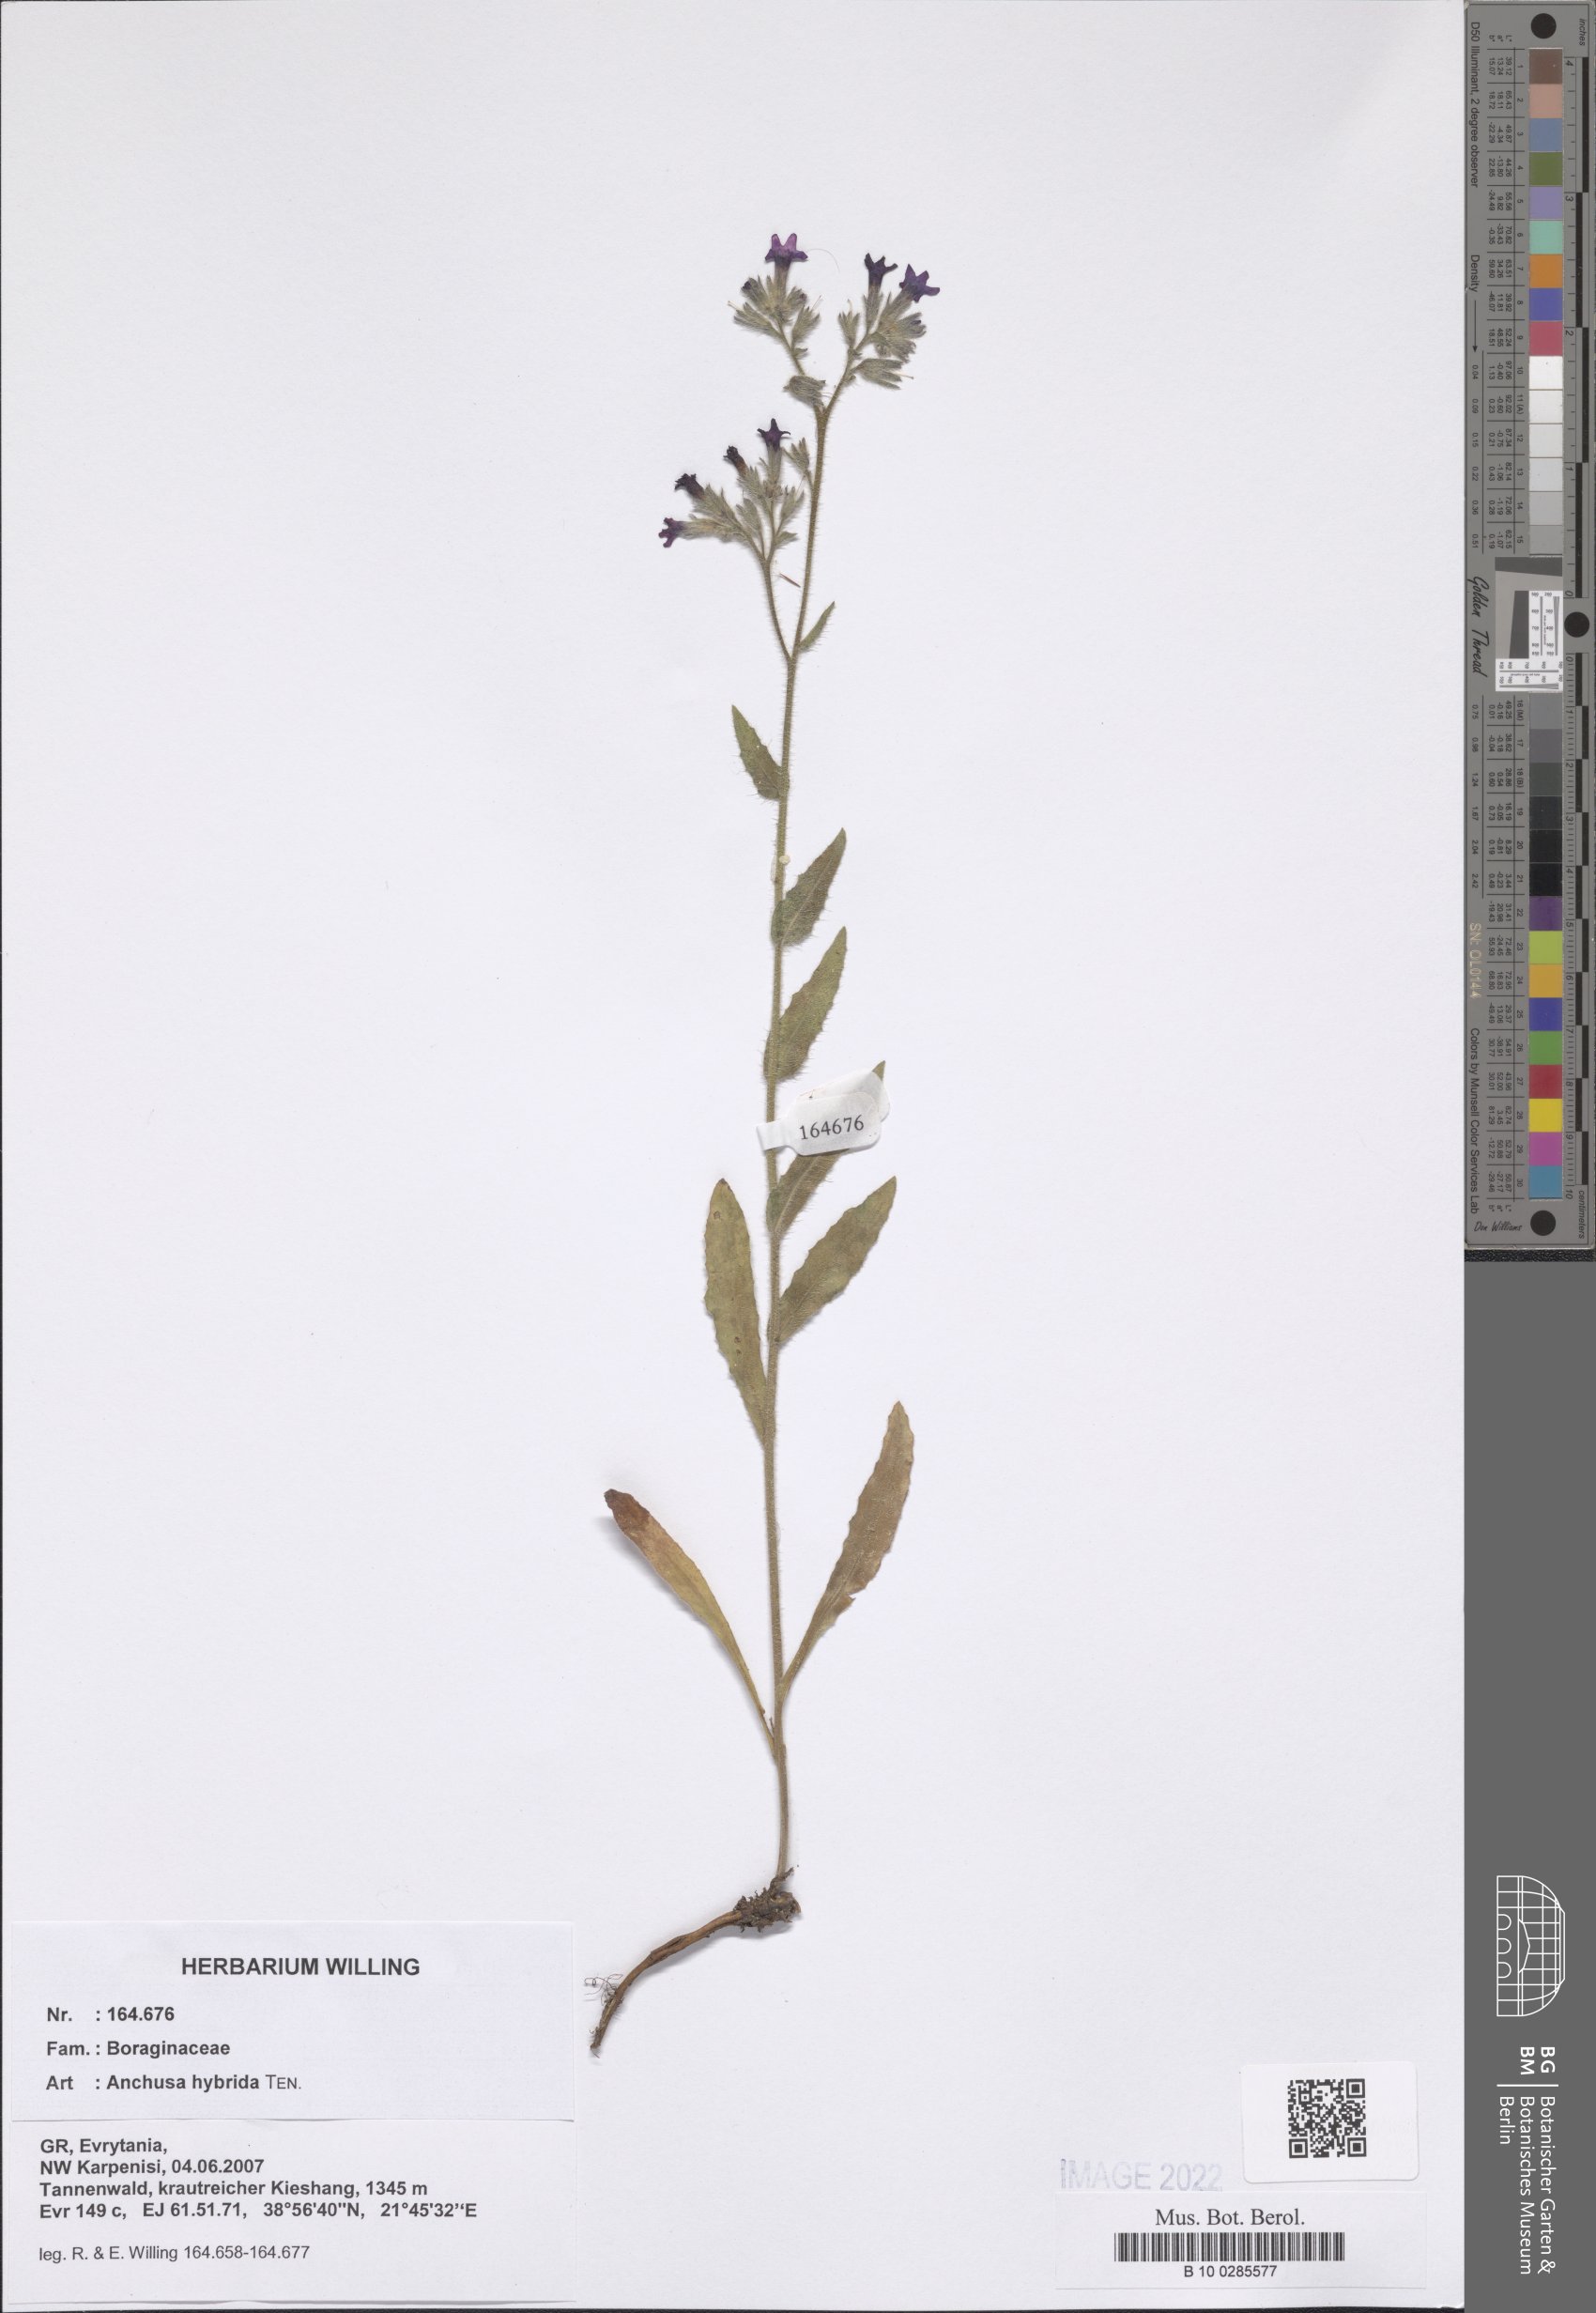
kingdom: Plantae
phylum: Tracheophyta
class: Magnoliopsida
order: Boraginales
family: Boraginaceae
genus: Anchusa
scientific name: Anchusa hybrida
